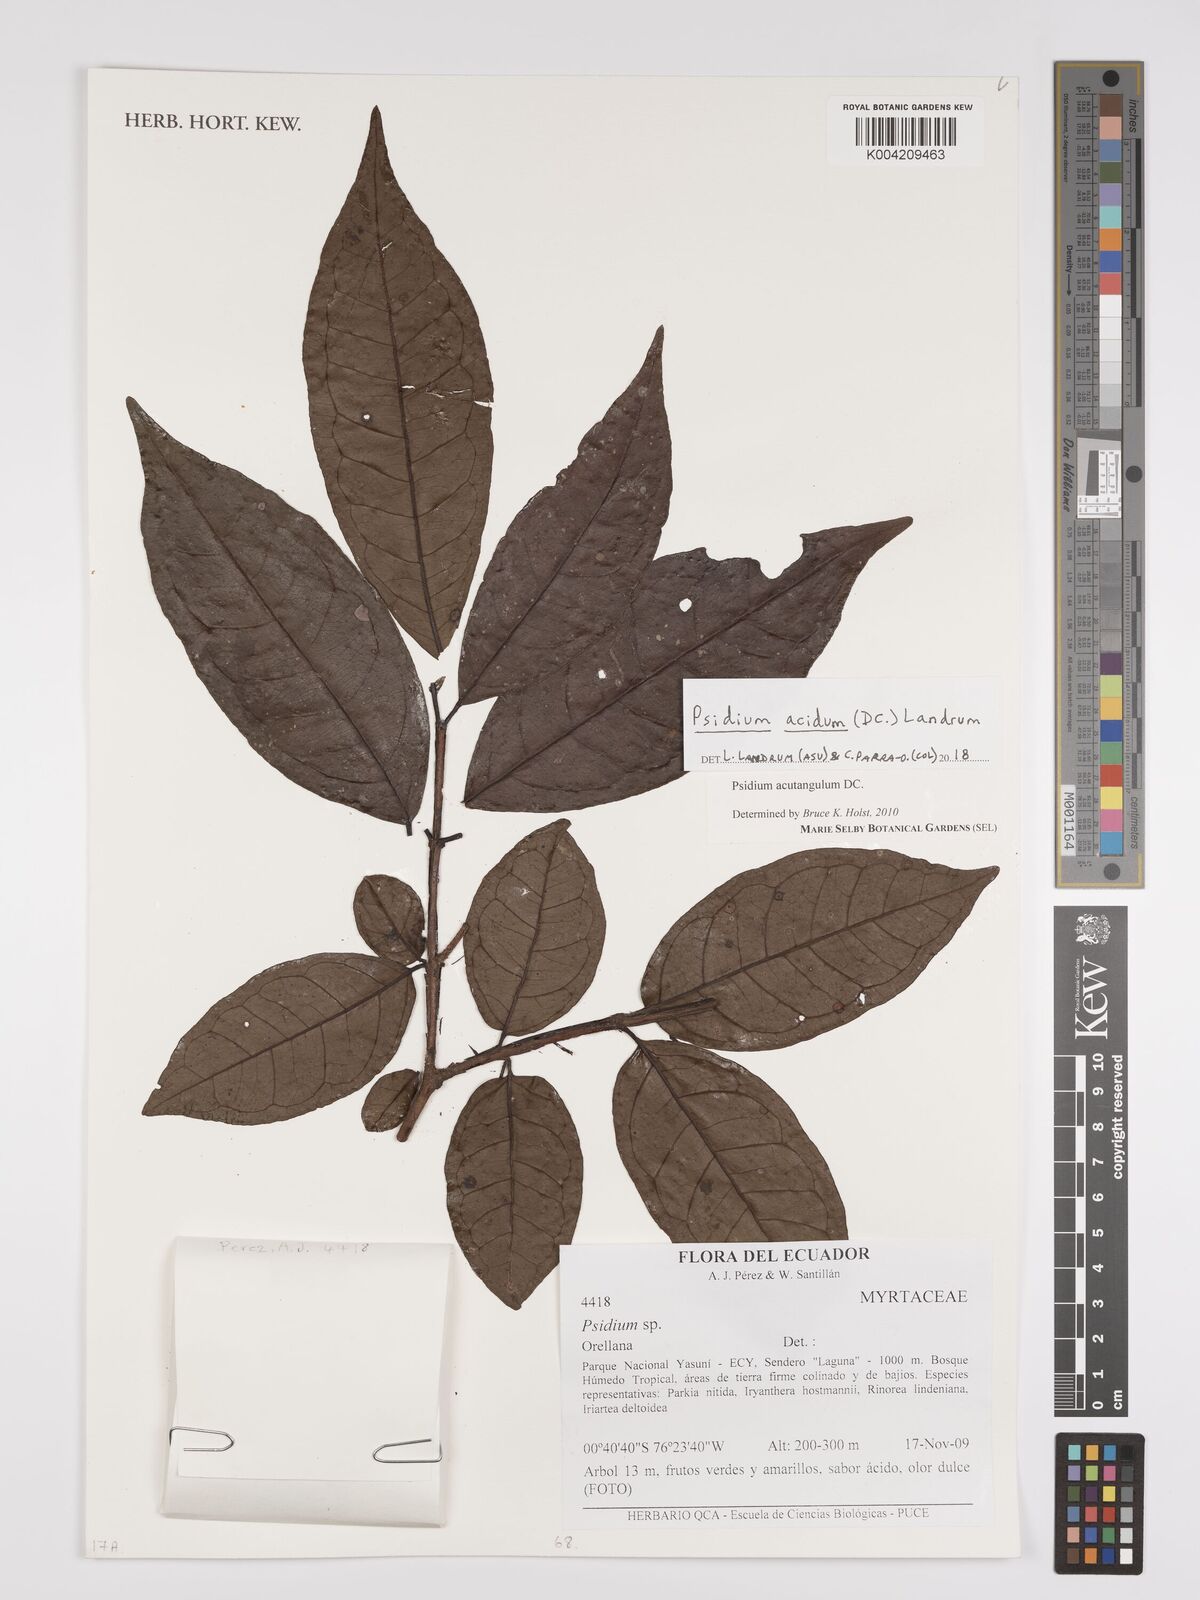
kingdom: Plantae
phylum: Tracheophyta
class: Magnoliopsida
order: Myrtales
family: Myrtaceae
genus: Psidium
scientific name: Psidium
